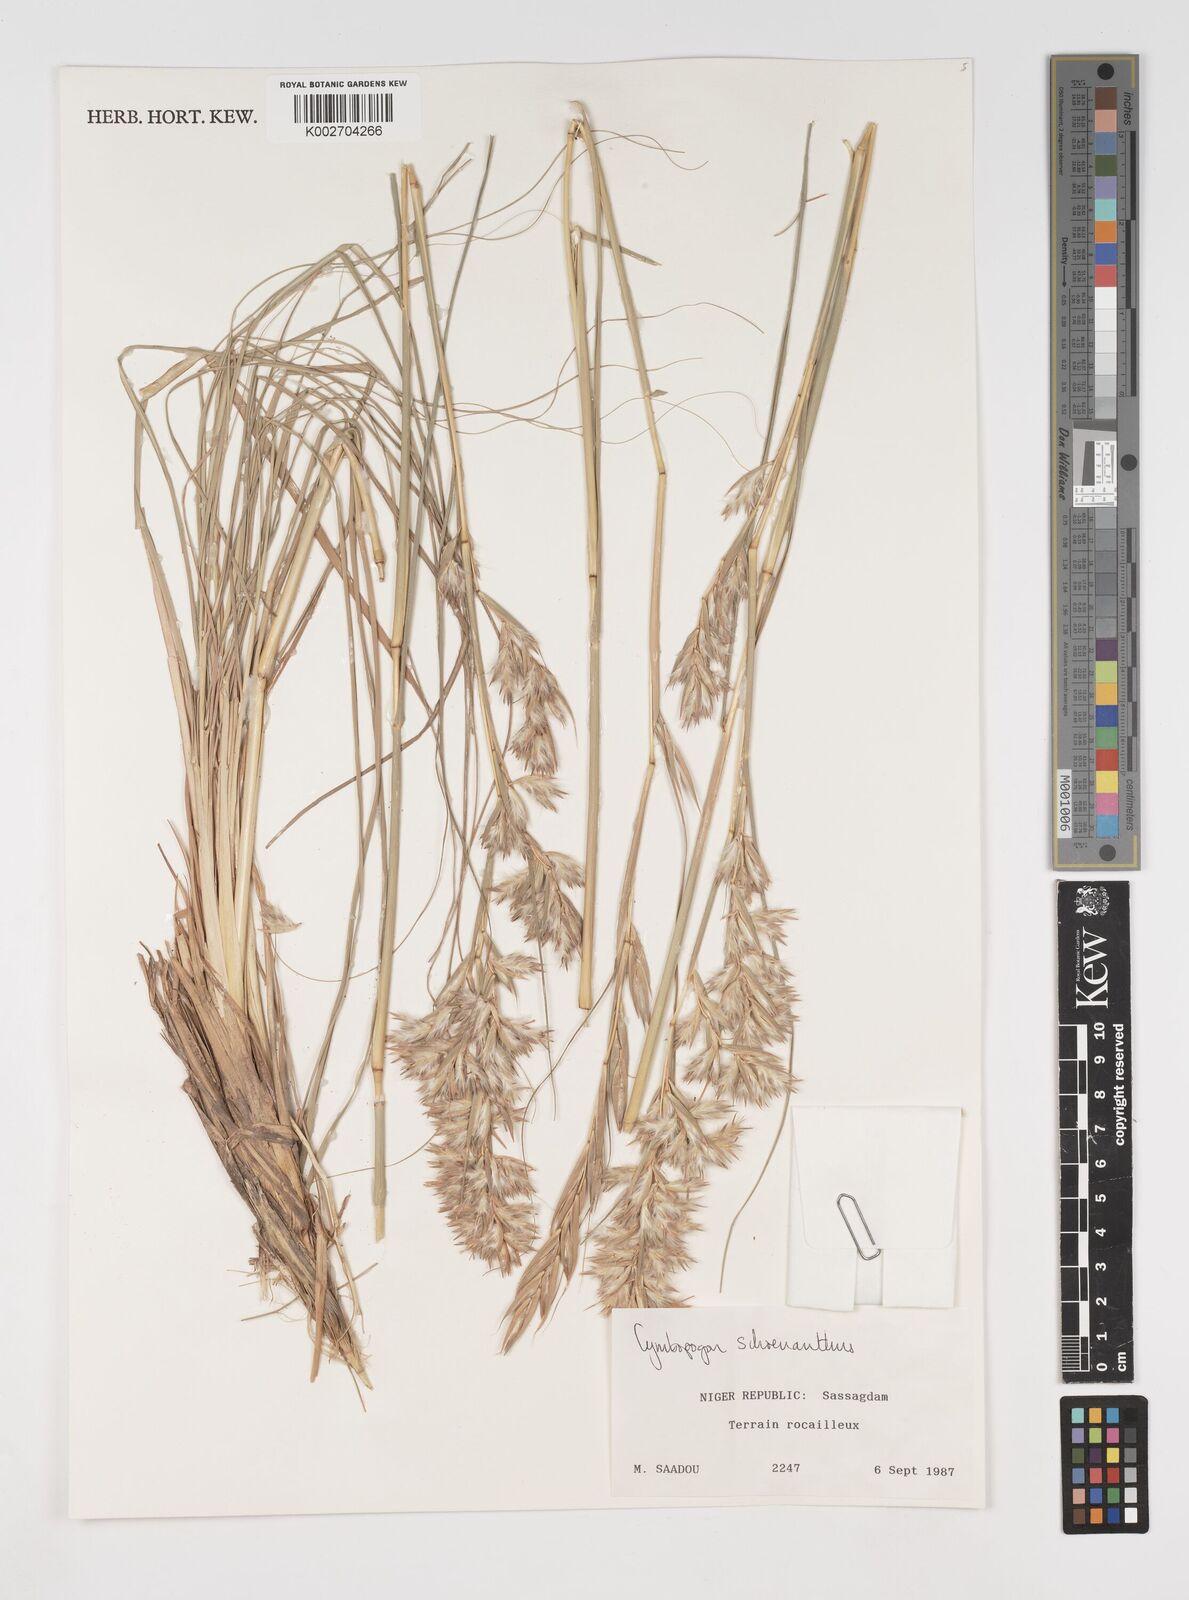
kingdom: Plantae
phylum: Tracheophyta
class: Liliopsida
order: Poales
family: Poaceae
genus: Cymbopogon
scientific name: Cymbopogon schoenanthus
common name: Geranium grass
